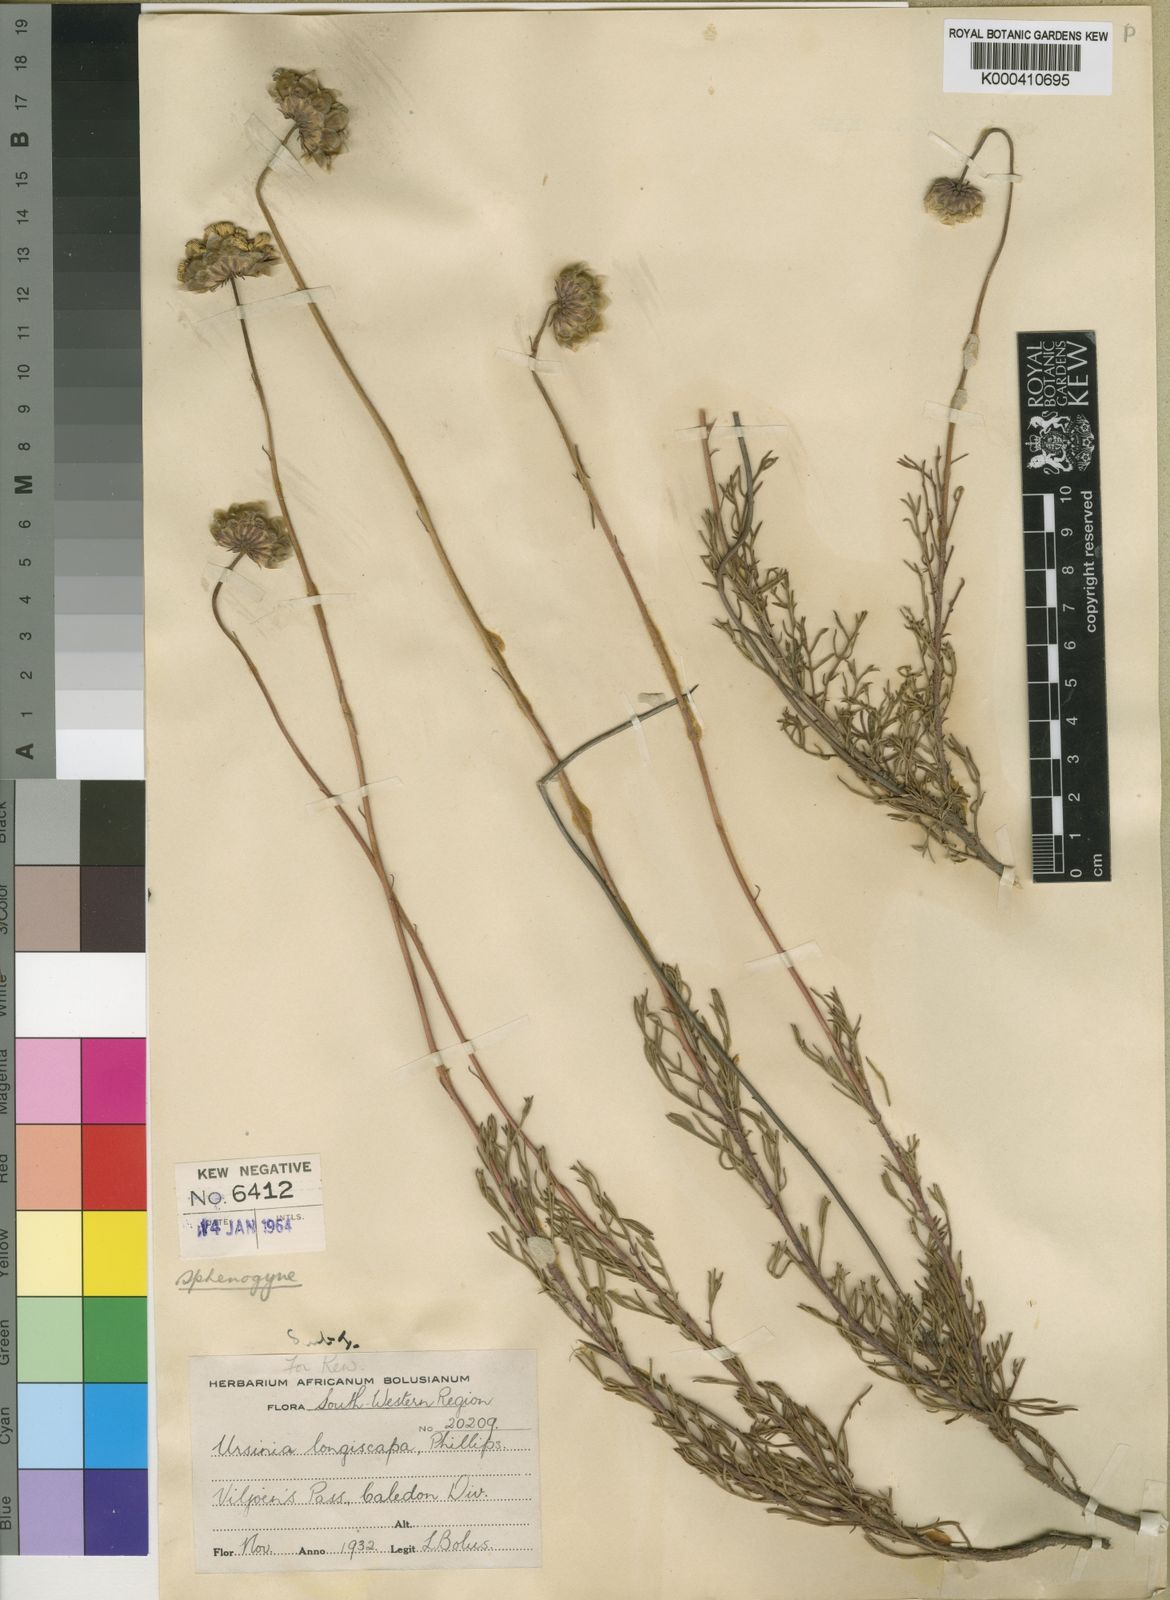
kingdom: Plantae
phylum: Tracheophyta
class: Magnoliopsida
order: Asterales
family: Asteraceae
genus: Ursinia
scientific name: Ursinia paleacea
